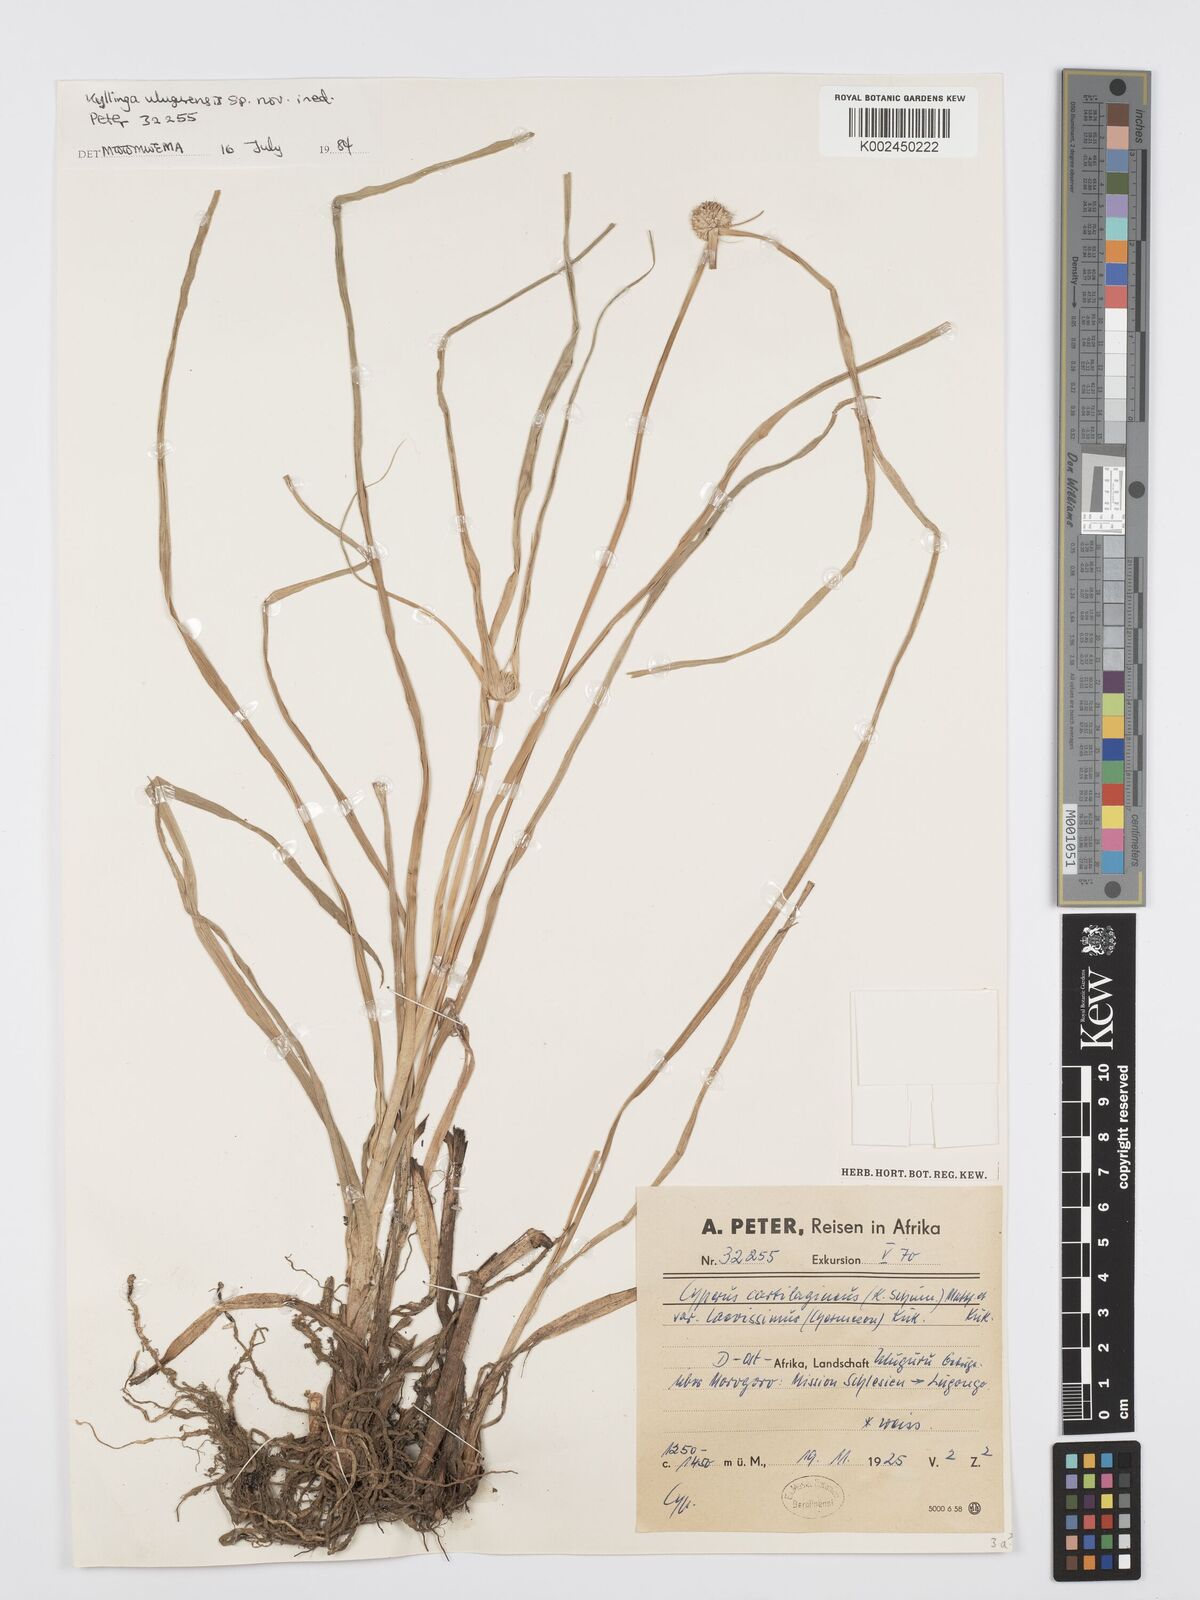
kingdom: Plantae
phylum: Tracheophyta
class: Liliopsida
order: Poales
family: Cyperaceae
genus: Cyperus
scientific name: Cyperus
